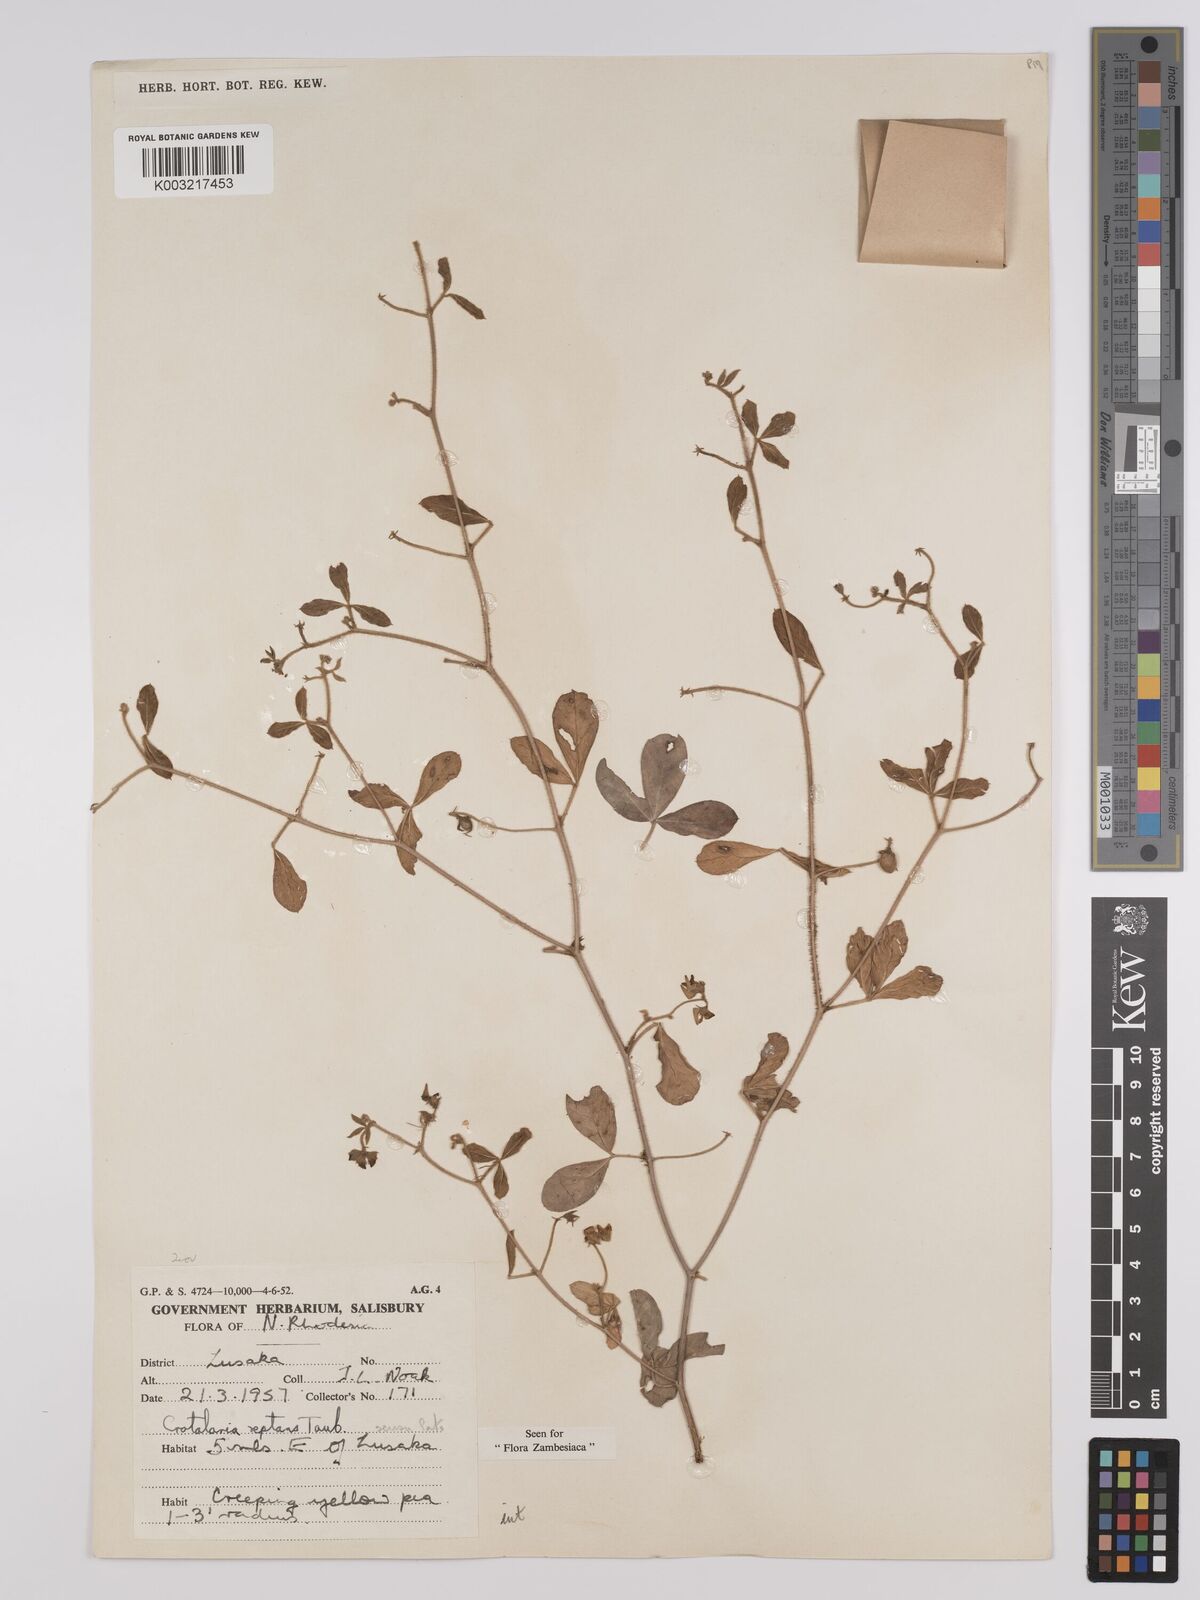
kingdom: Plantae
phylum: Tracheophyta
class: Magnoliopsida
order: Fabales
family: Fabaceae
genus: Crotalaria
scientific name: Crotalaria reptans
